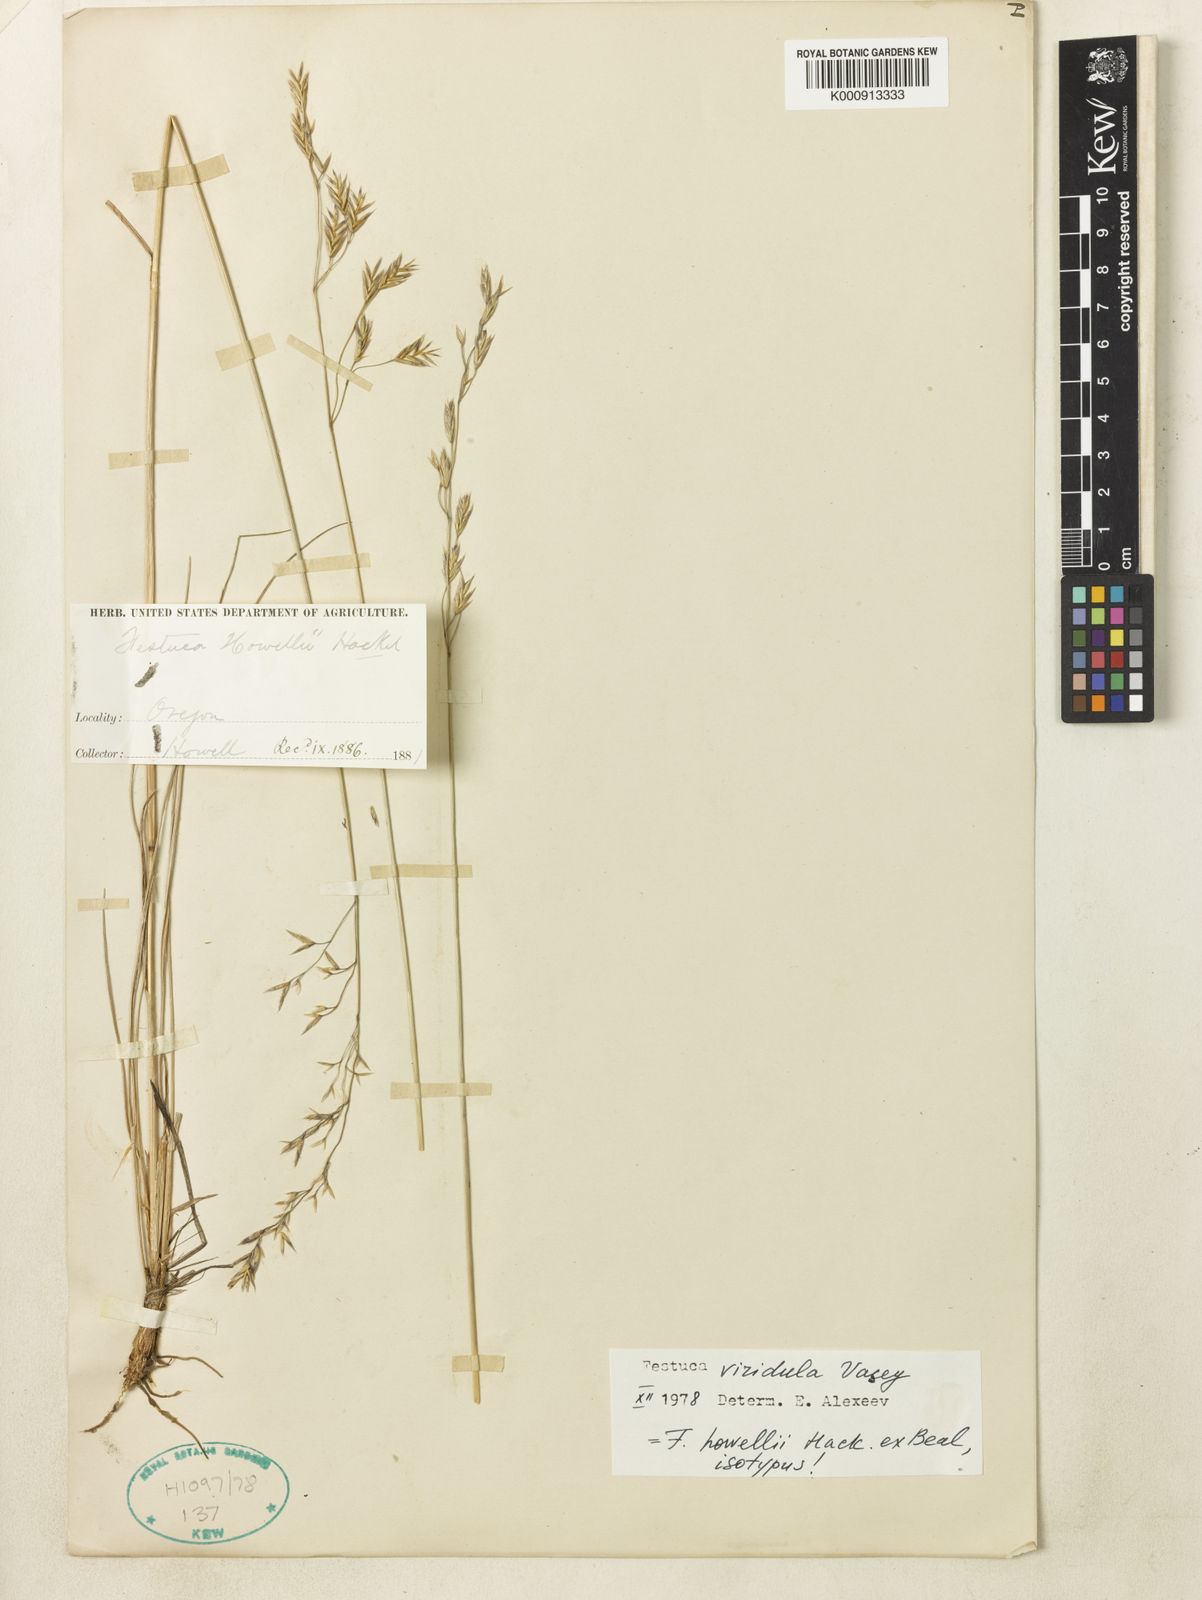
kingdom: Plantae
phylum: Tracheophyta
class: Liliopsida
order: Poales
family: Poaceae
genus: Festuca
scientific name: Festuca viridula
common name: Mountain bunchgrass
